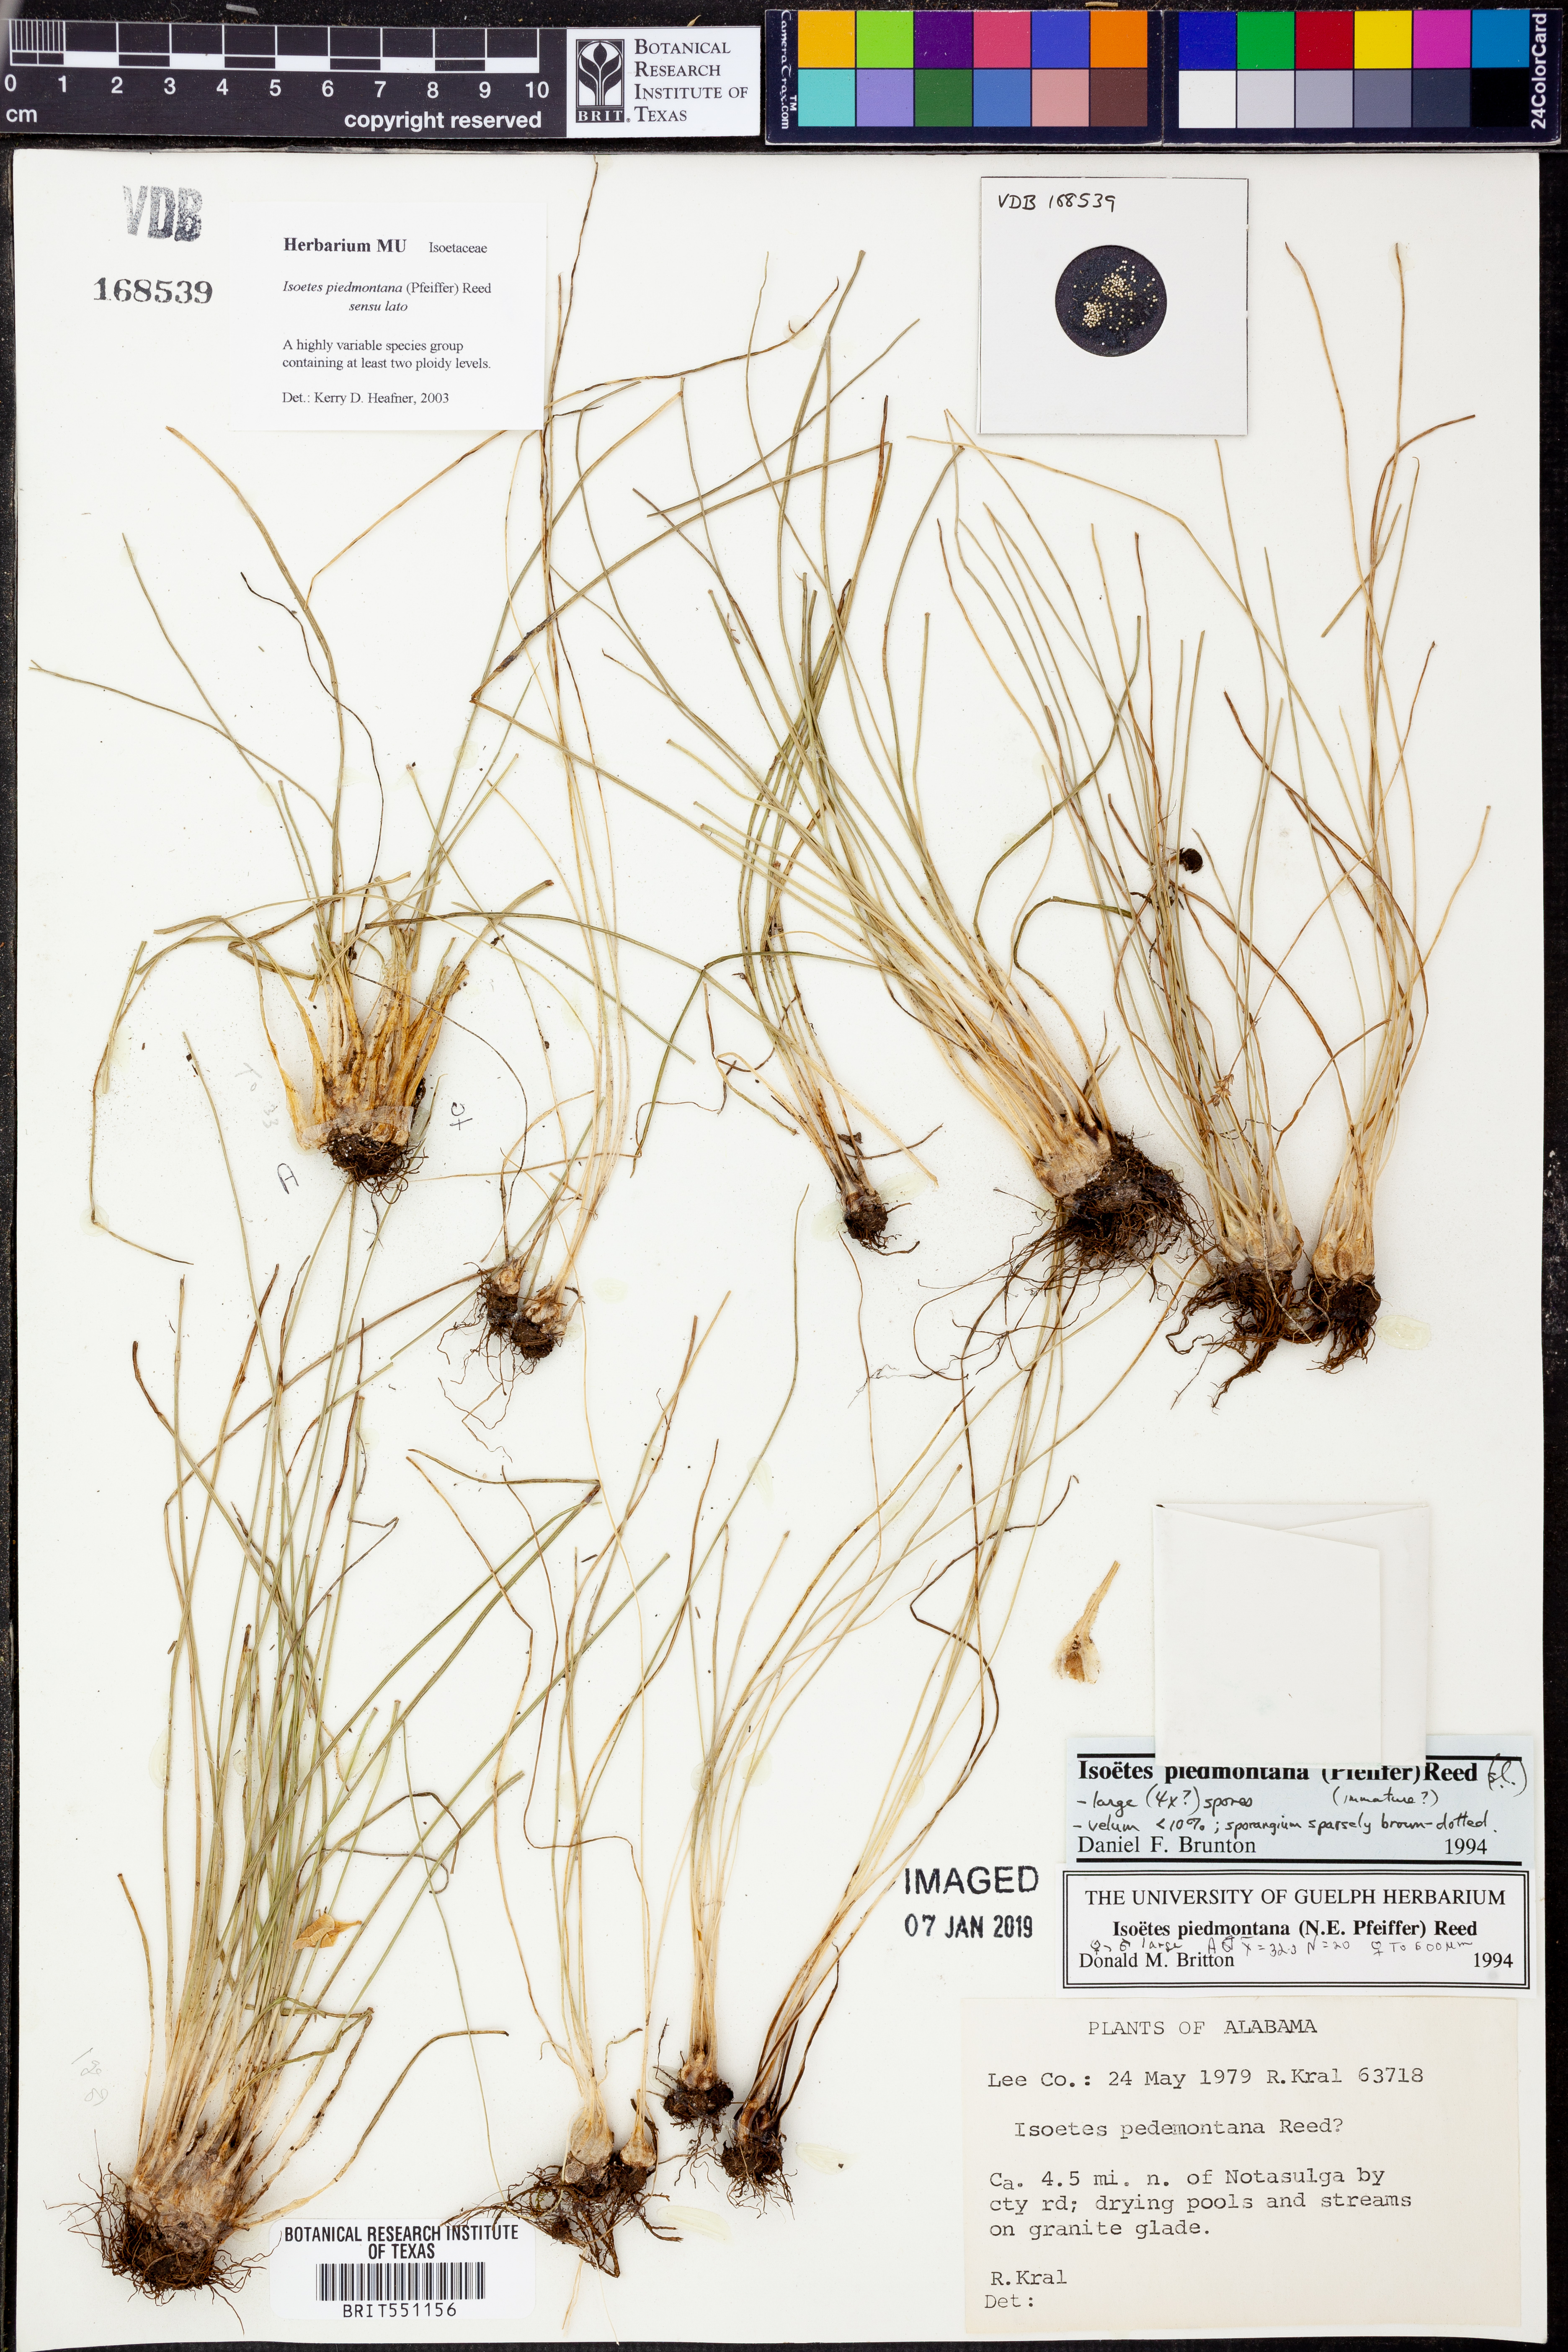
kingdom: Plantae
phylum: Tracheophyta
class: Lycopodiopsida
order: Isoetales
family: Isoetaceae
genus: Isoetes
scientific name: Isoetes virginica
